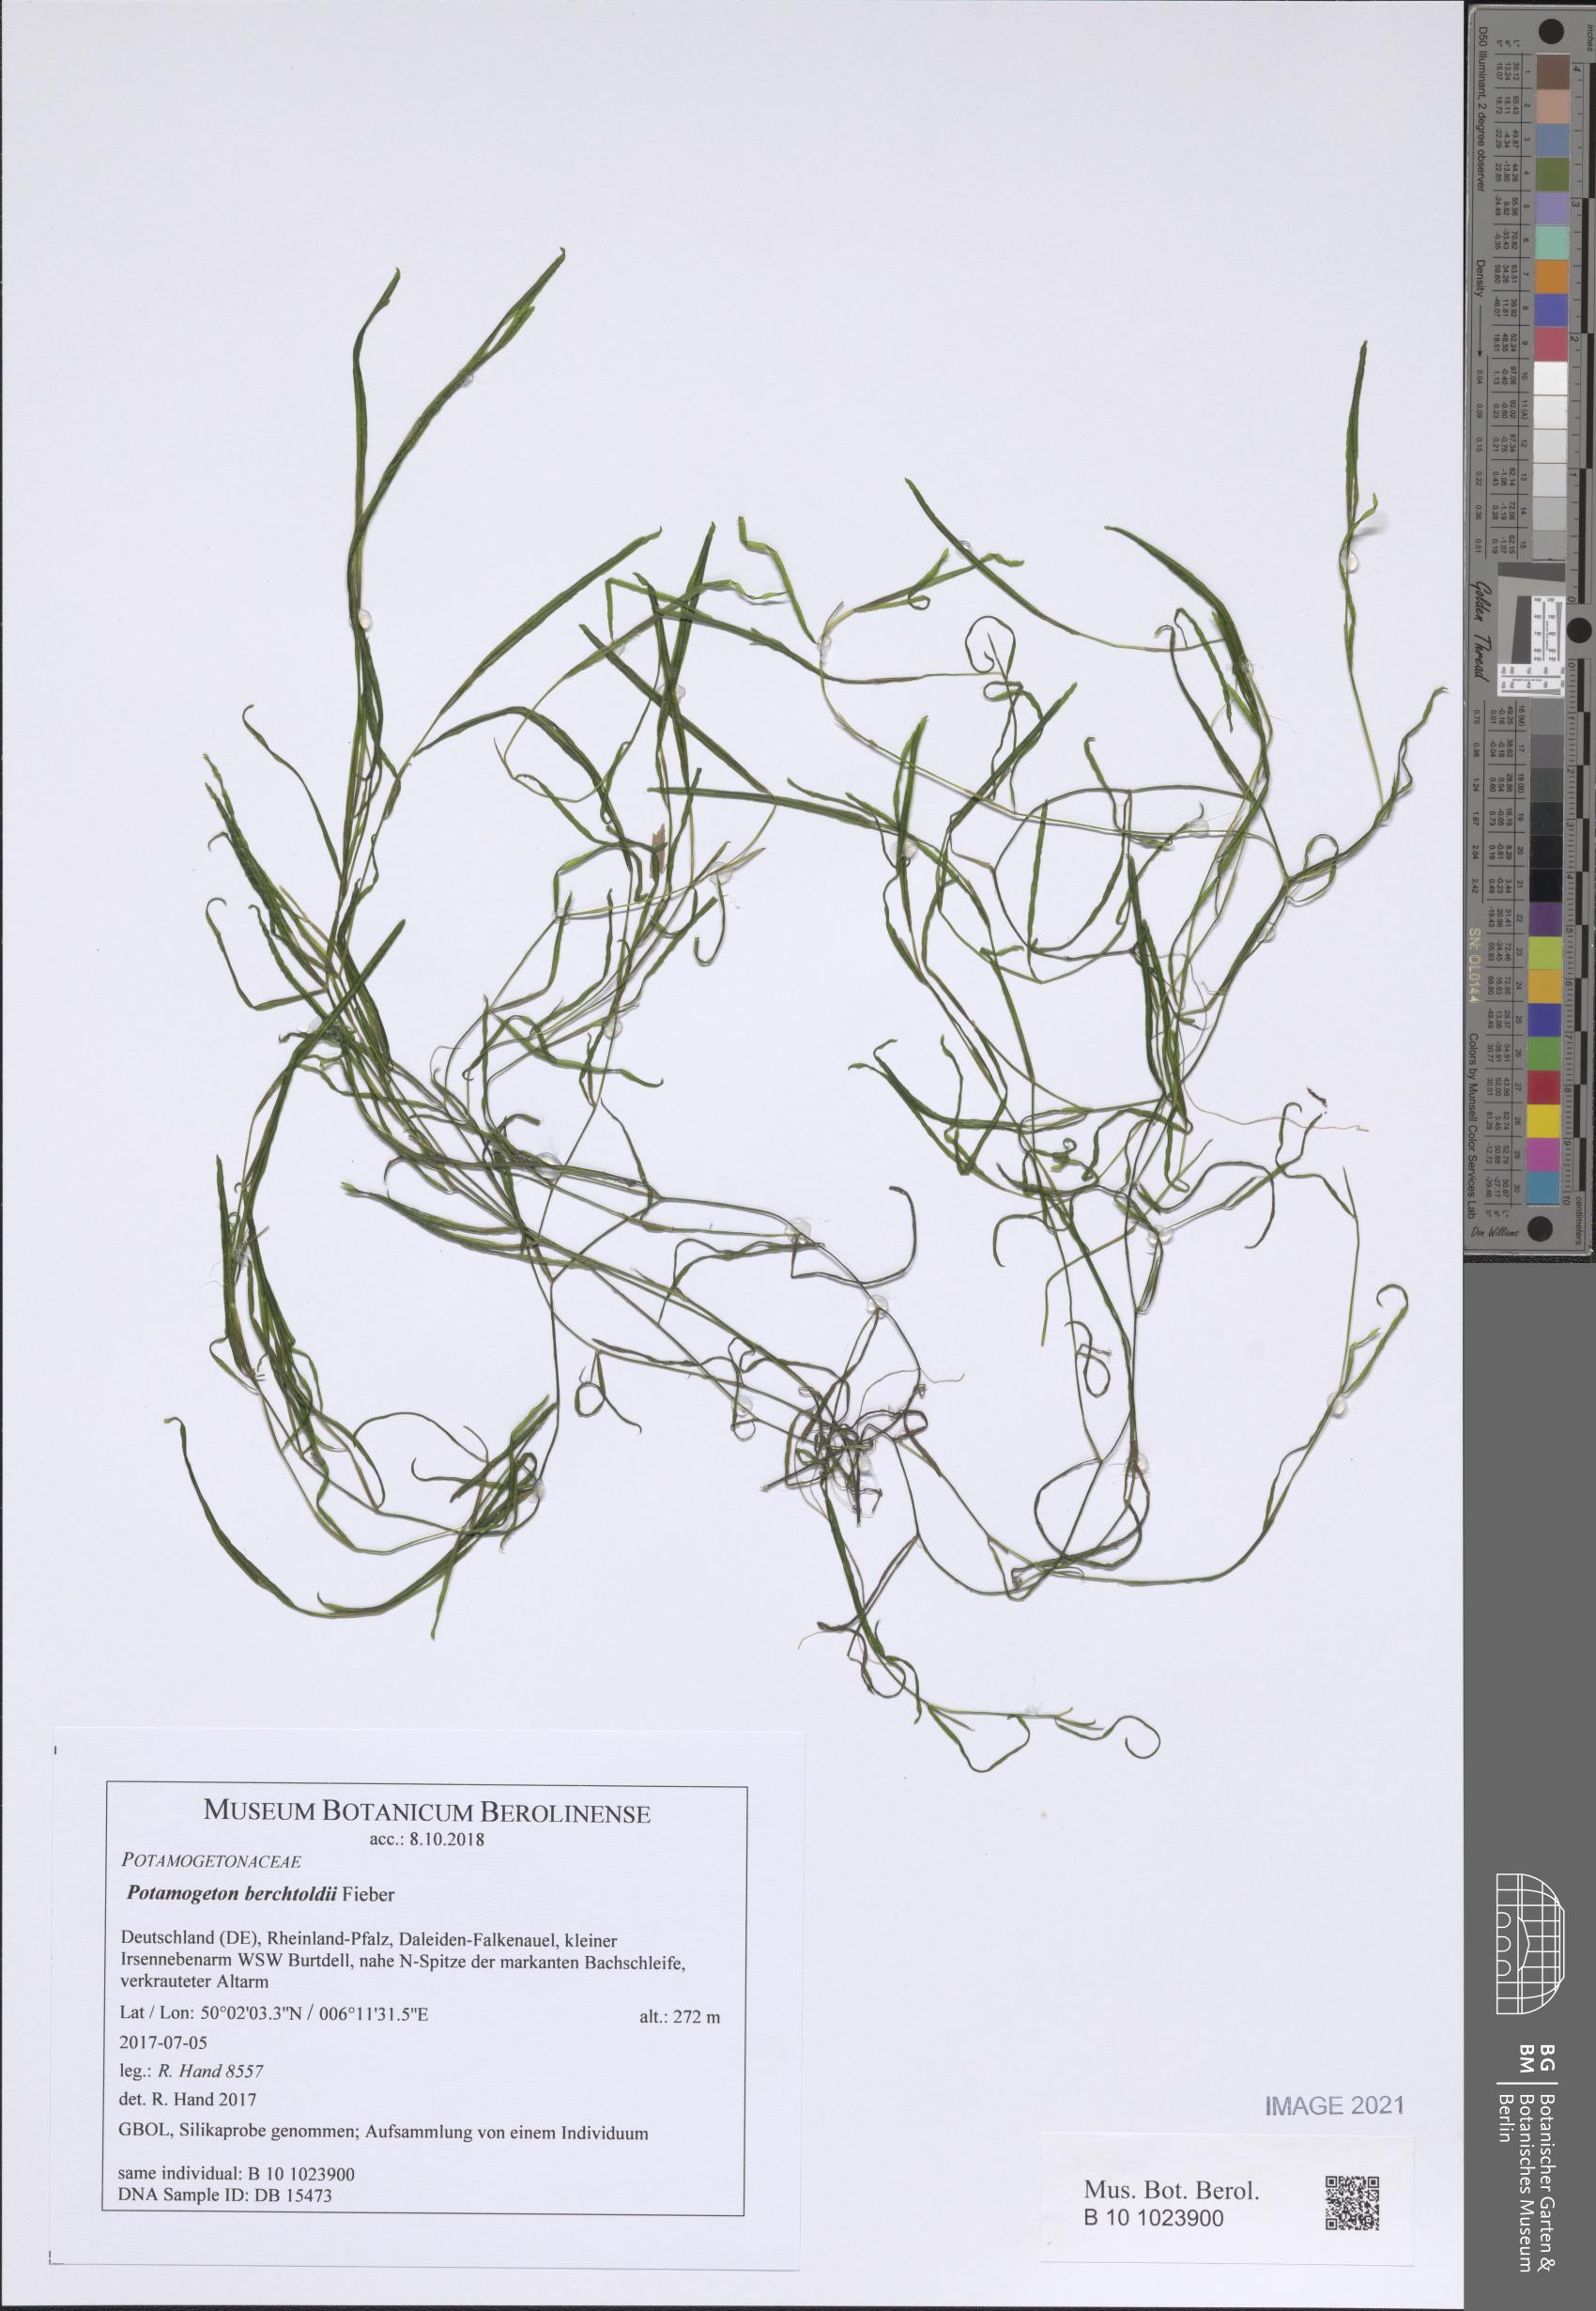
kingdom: Plantae
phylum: Tracheophyta
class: Liliopsida
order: Alismatales
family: Potamogetonaceae
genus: Potamogeton
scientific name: Potamogeton berchtoldii
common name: Small pondweed
